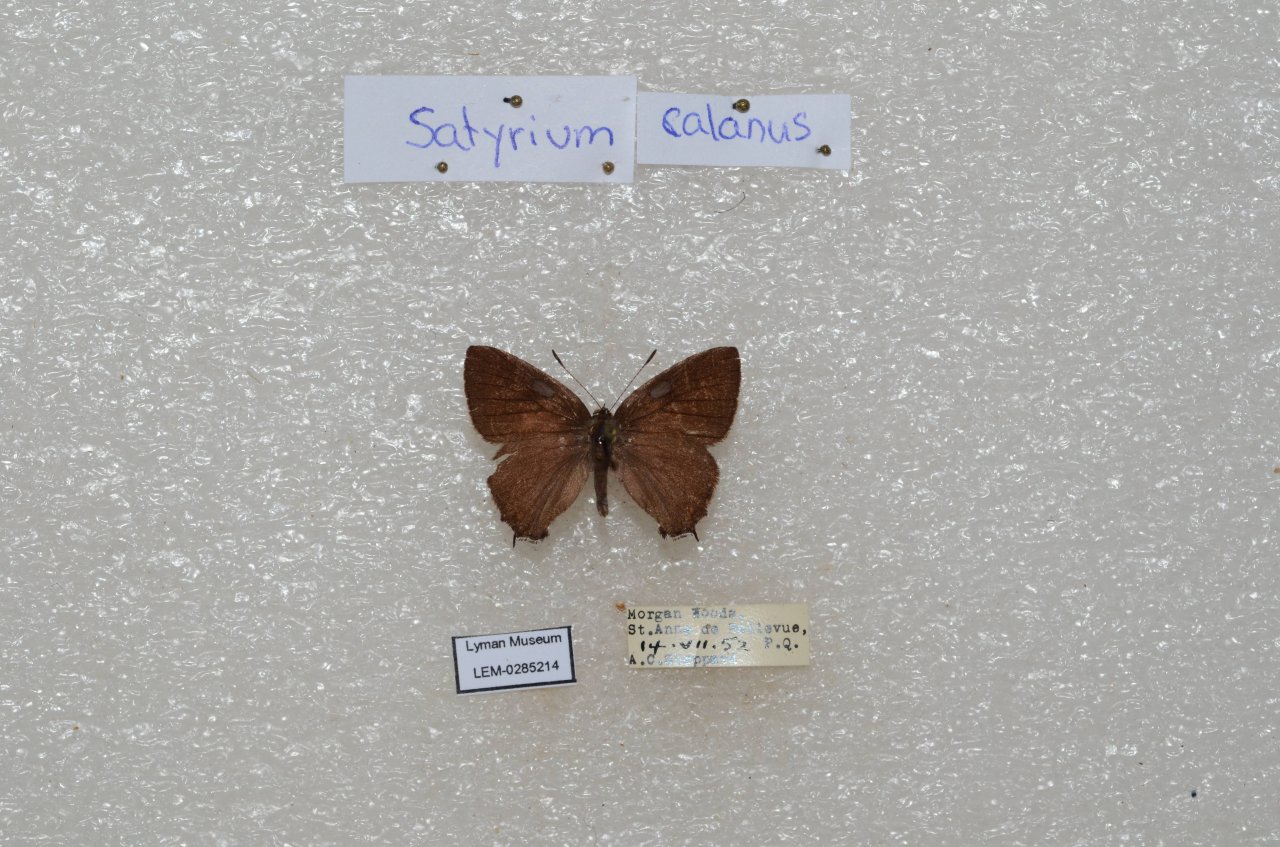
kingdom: Animalia
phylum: Arthropoda
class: Insecta
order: Lepidoptera
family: Lycaenidae
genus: Satyrium
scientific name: Satyrium calanus
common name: Banded Hairstreak
